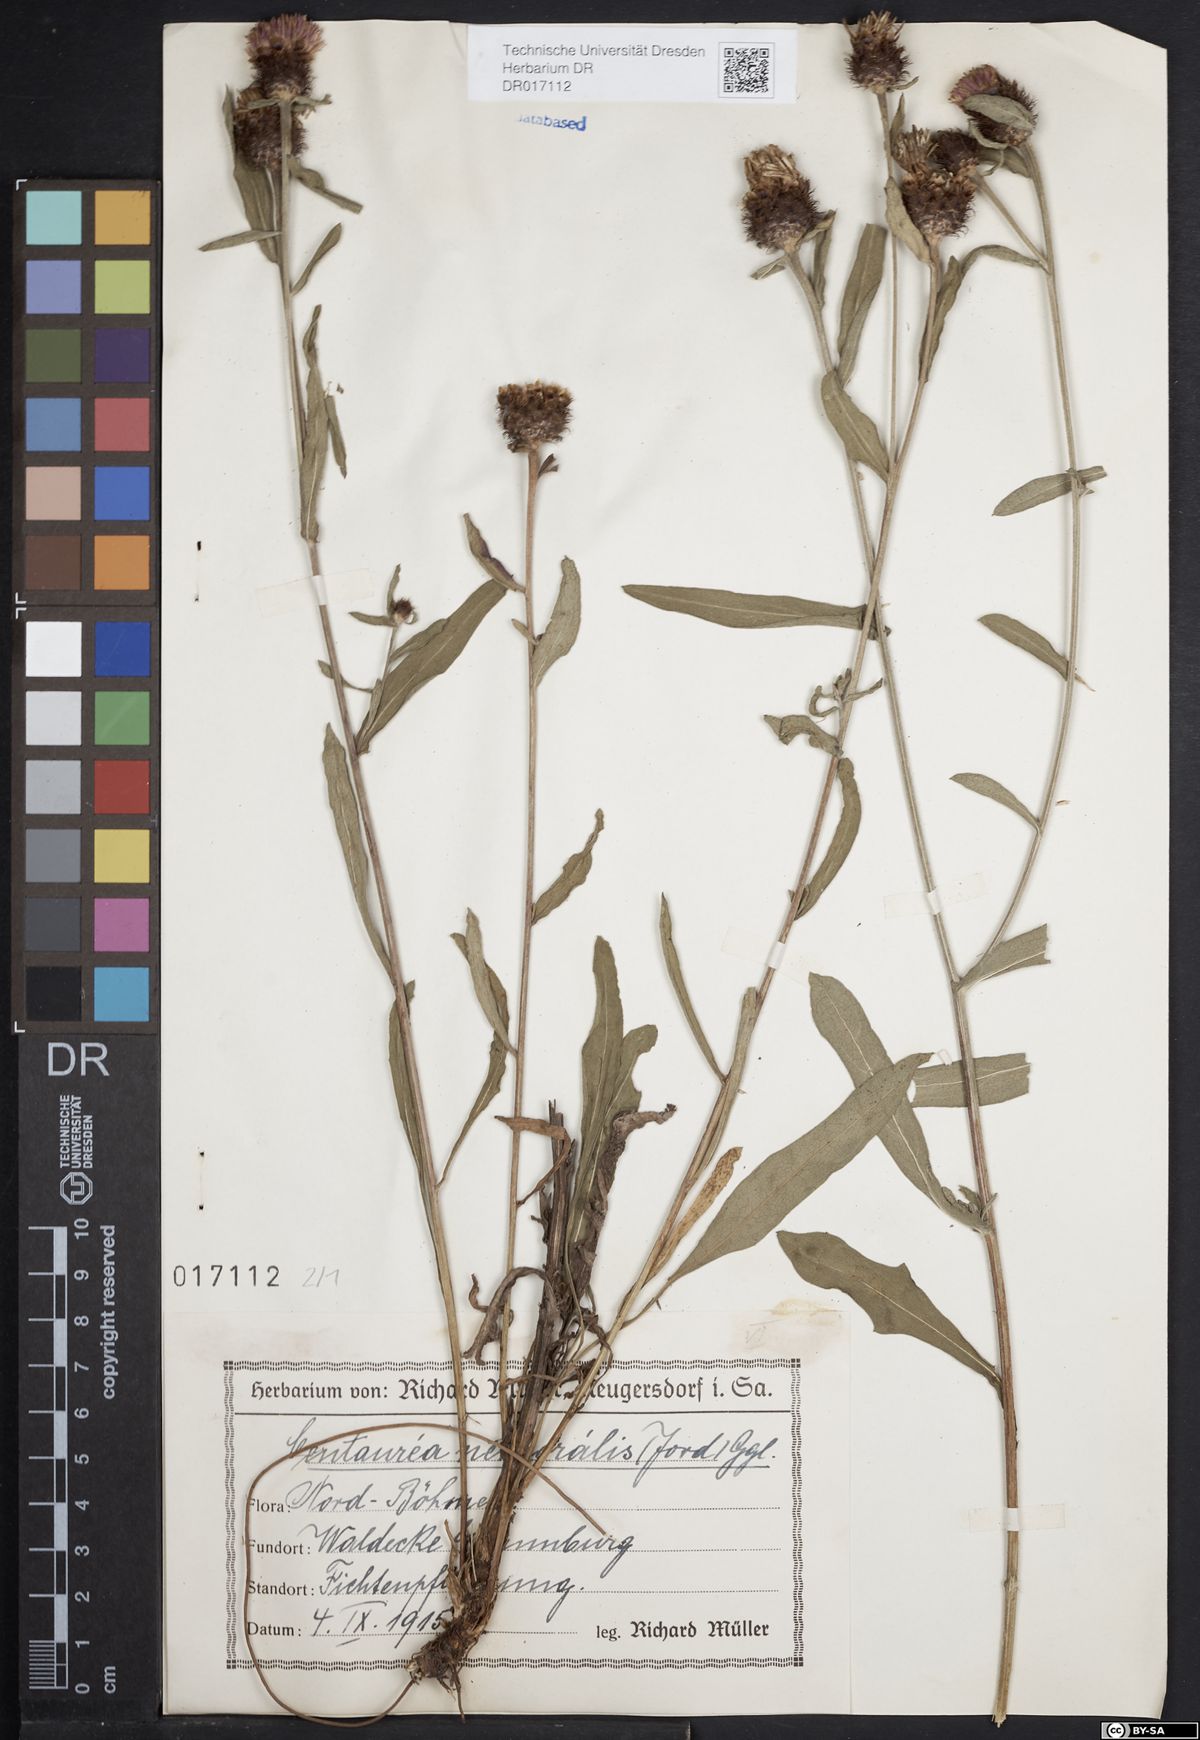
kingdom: Plantae
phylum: Tracheophyta
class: Magnoliopsida
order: Asterales
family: Asteraceae
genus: Centaurea
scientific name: Centaurea nigra
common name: Lesser knapweed
